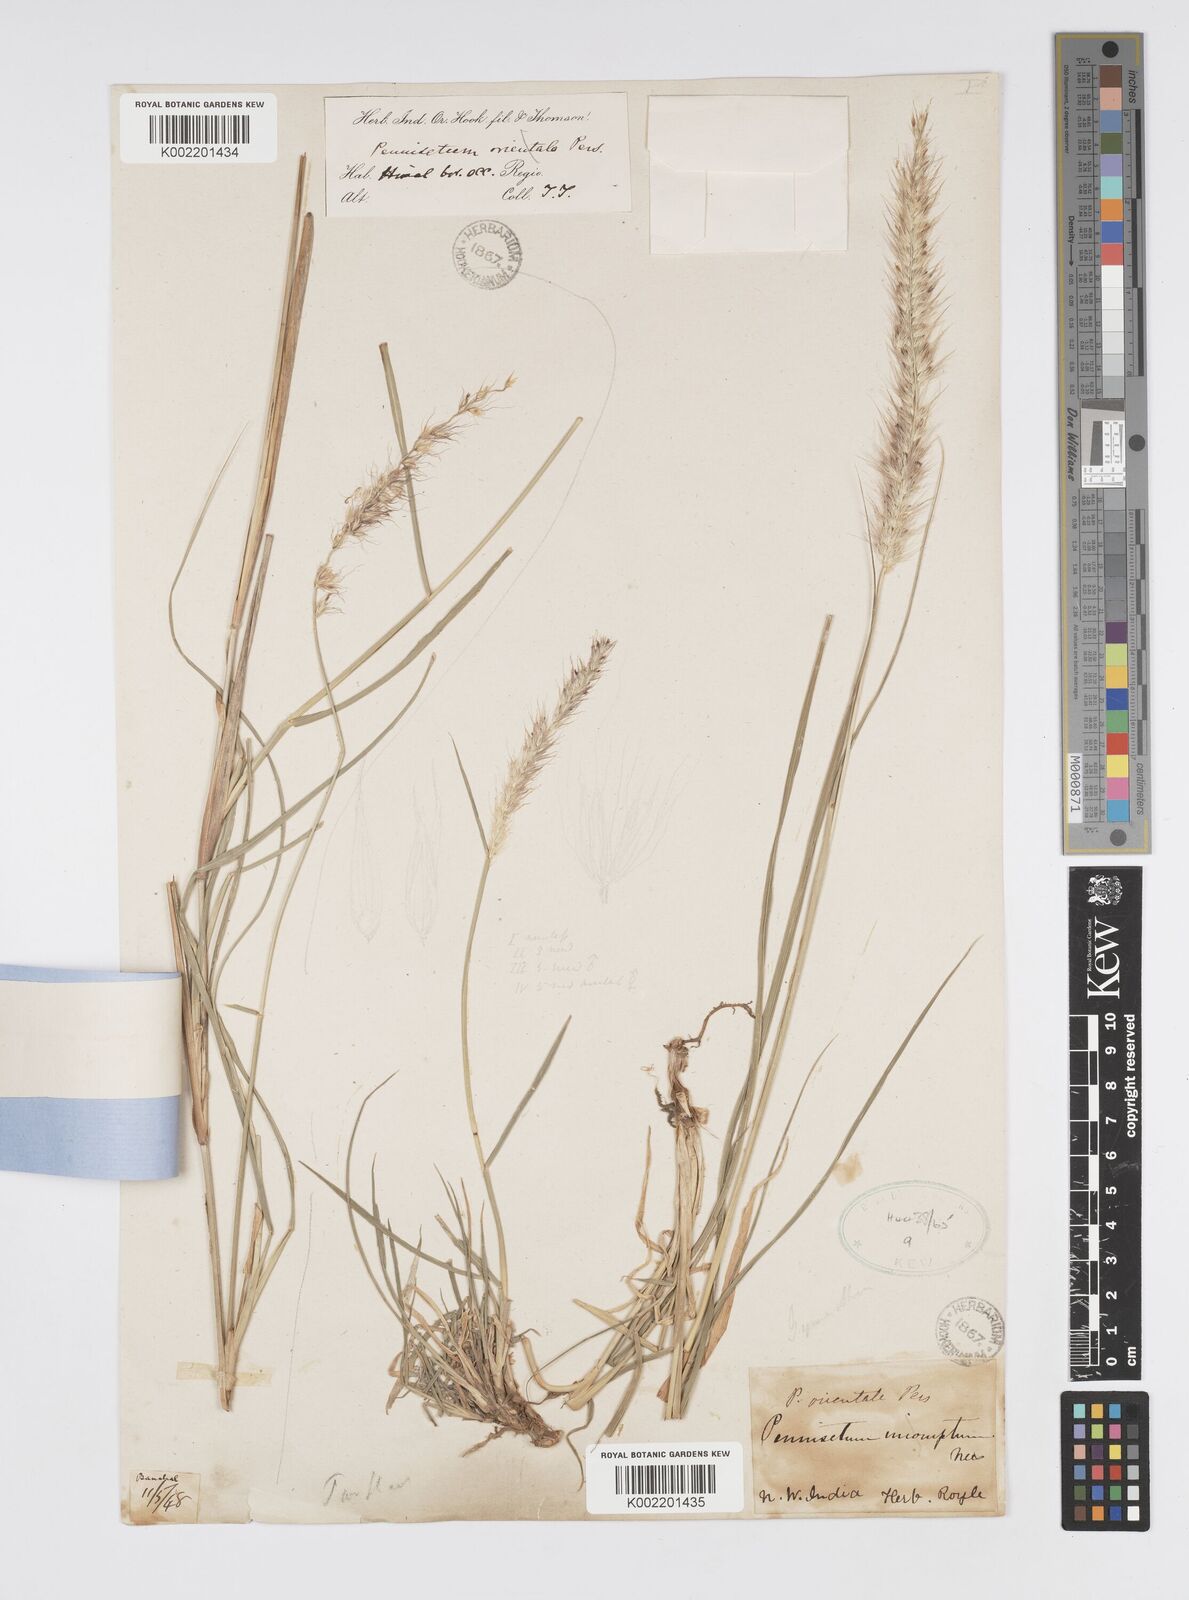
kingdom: Plantae
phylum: Tracheophyta
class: Liliopsida
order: Poales
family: Poaceae
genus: Cenchrus
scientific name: Cenchrus flaccidus
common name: Flaccid grass
